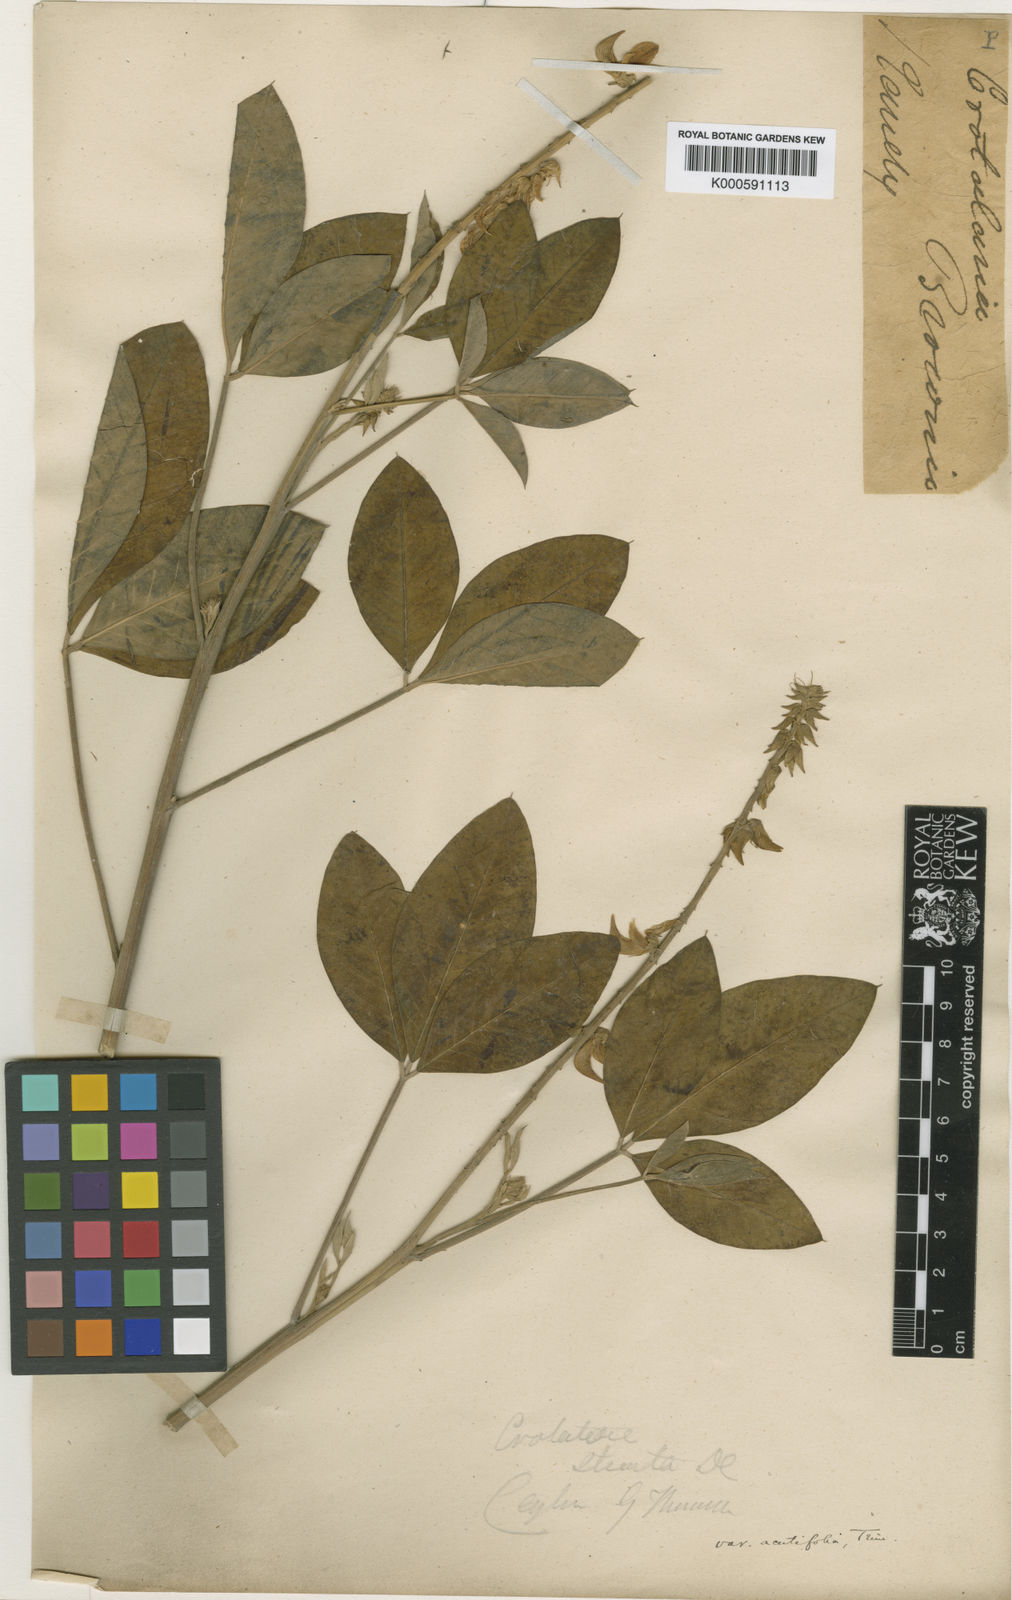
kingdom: Plantae
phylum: Tracheophyta
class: Magnoliopsida
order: Fabales
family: Fabaceae
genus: Crotalaria
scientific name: Crotalaria pallida
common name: Smooth rattlebox
